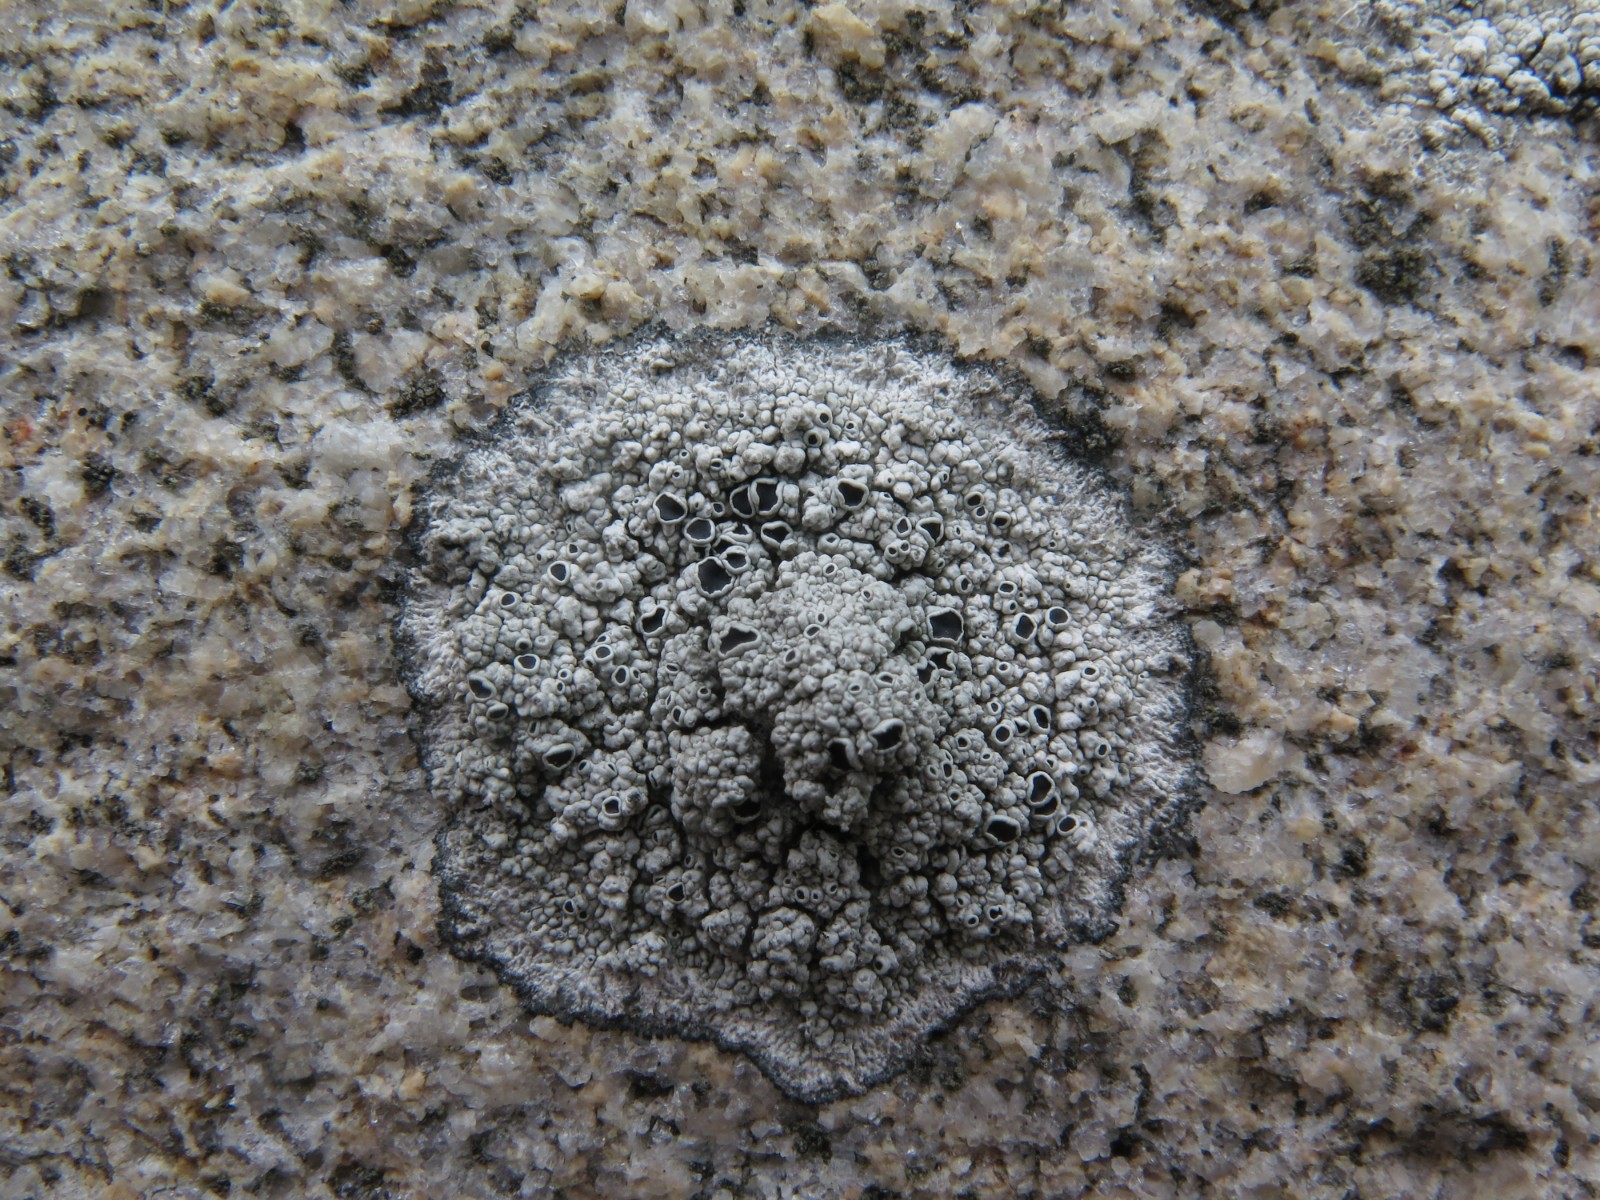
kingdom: Fungi
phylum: Ascomycota
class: Lecanoromycetes
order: Lecanorales
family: Tephromelataceae
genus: Tephromela
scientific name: Tephromela atra
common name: sortfrugtet kantskivelav
